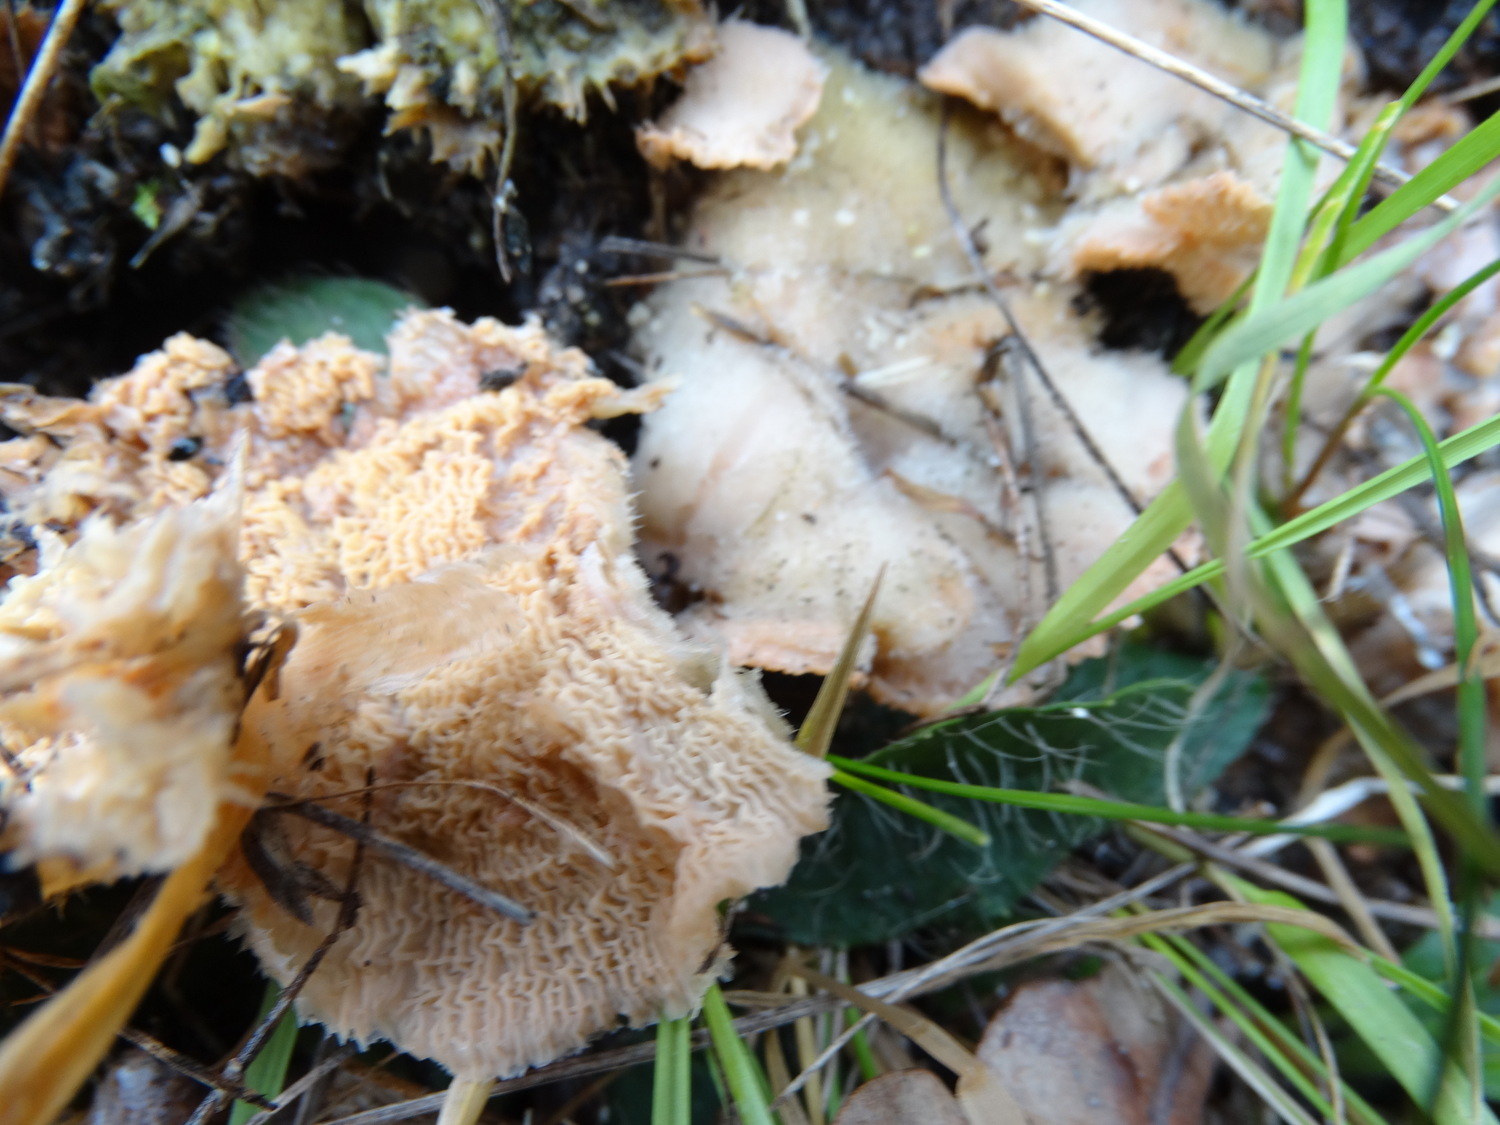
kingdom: Fungi
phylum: Basidiomycota
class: Agaricomycetes
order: Polyporales
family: Meruliaceae
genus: Phlebia
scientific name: Phlebia tremellosa
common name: bævrende åresvamp
